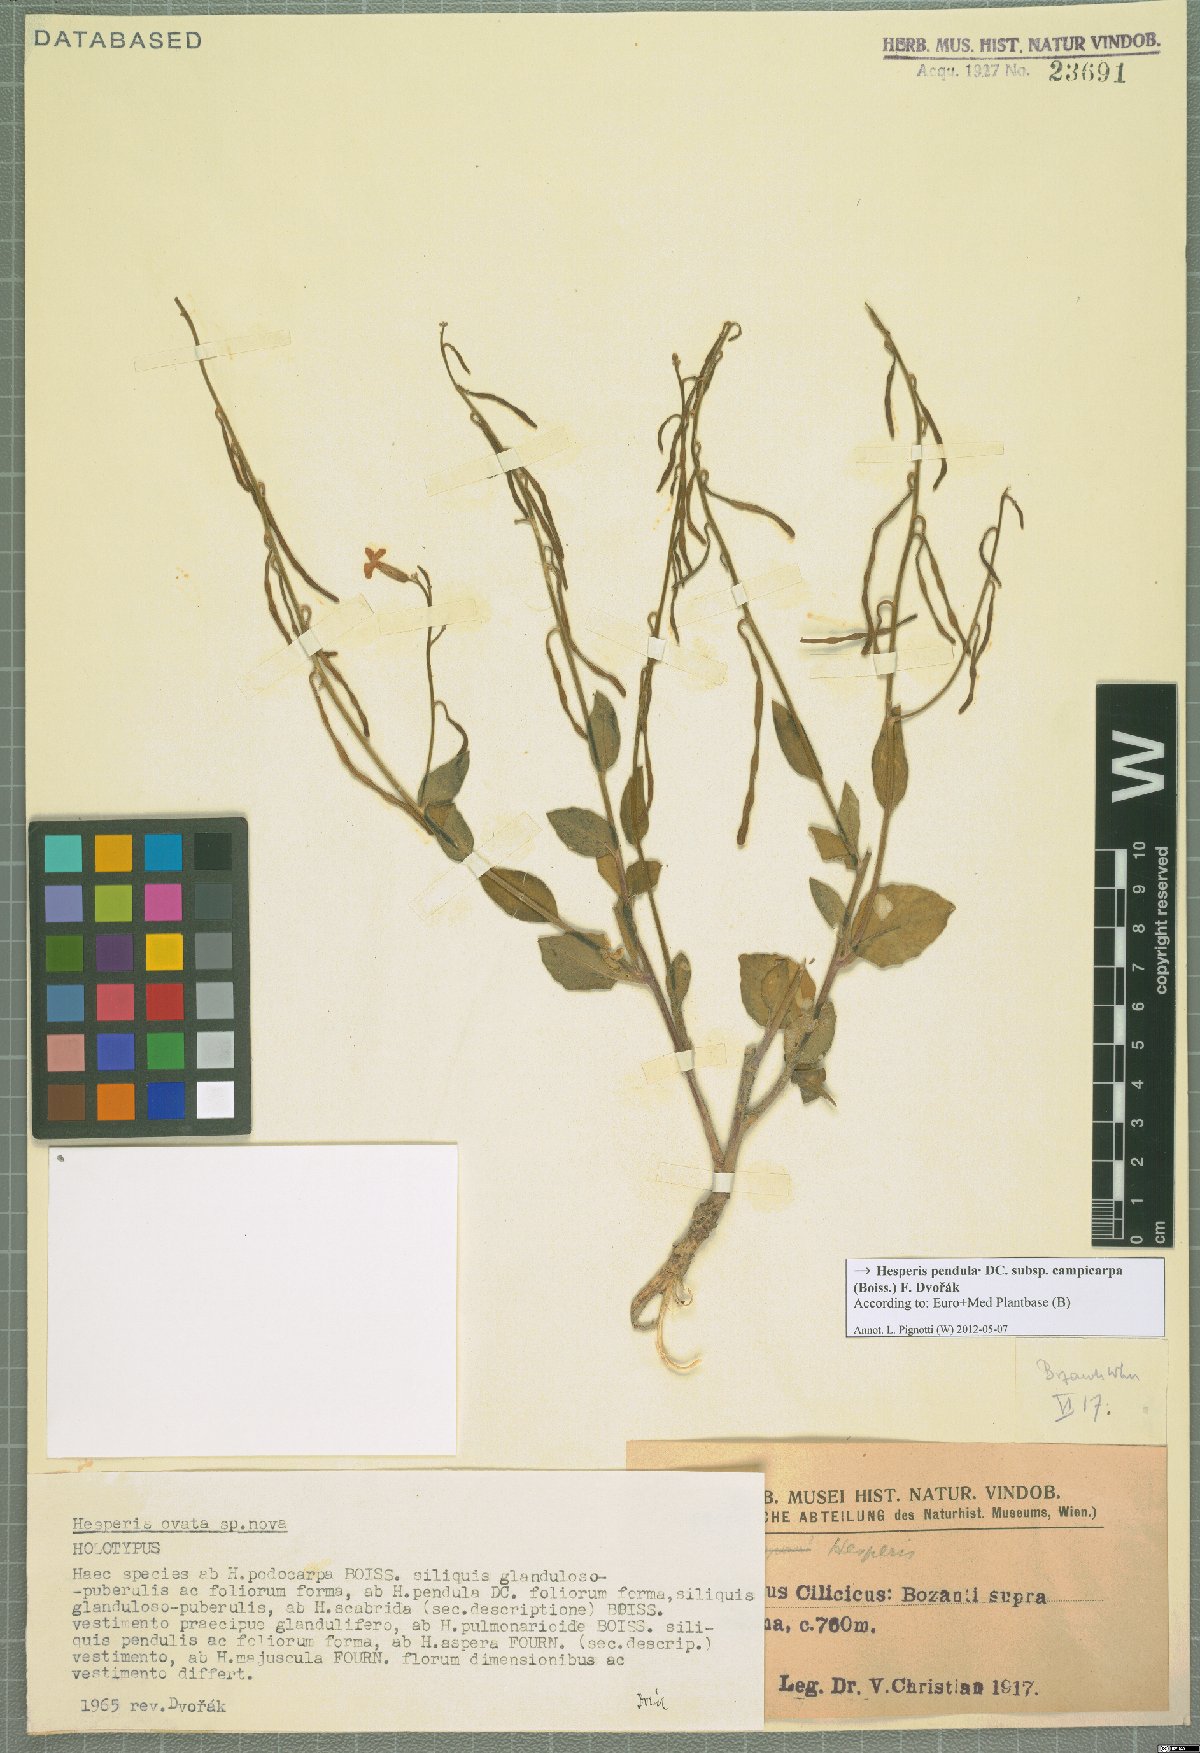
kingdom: Plantae
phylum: Tracheophyta
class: Magnoliopsida
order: Brassicales
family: Brassicaceae
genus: Hesperis
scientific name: Hesperis pendula
